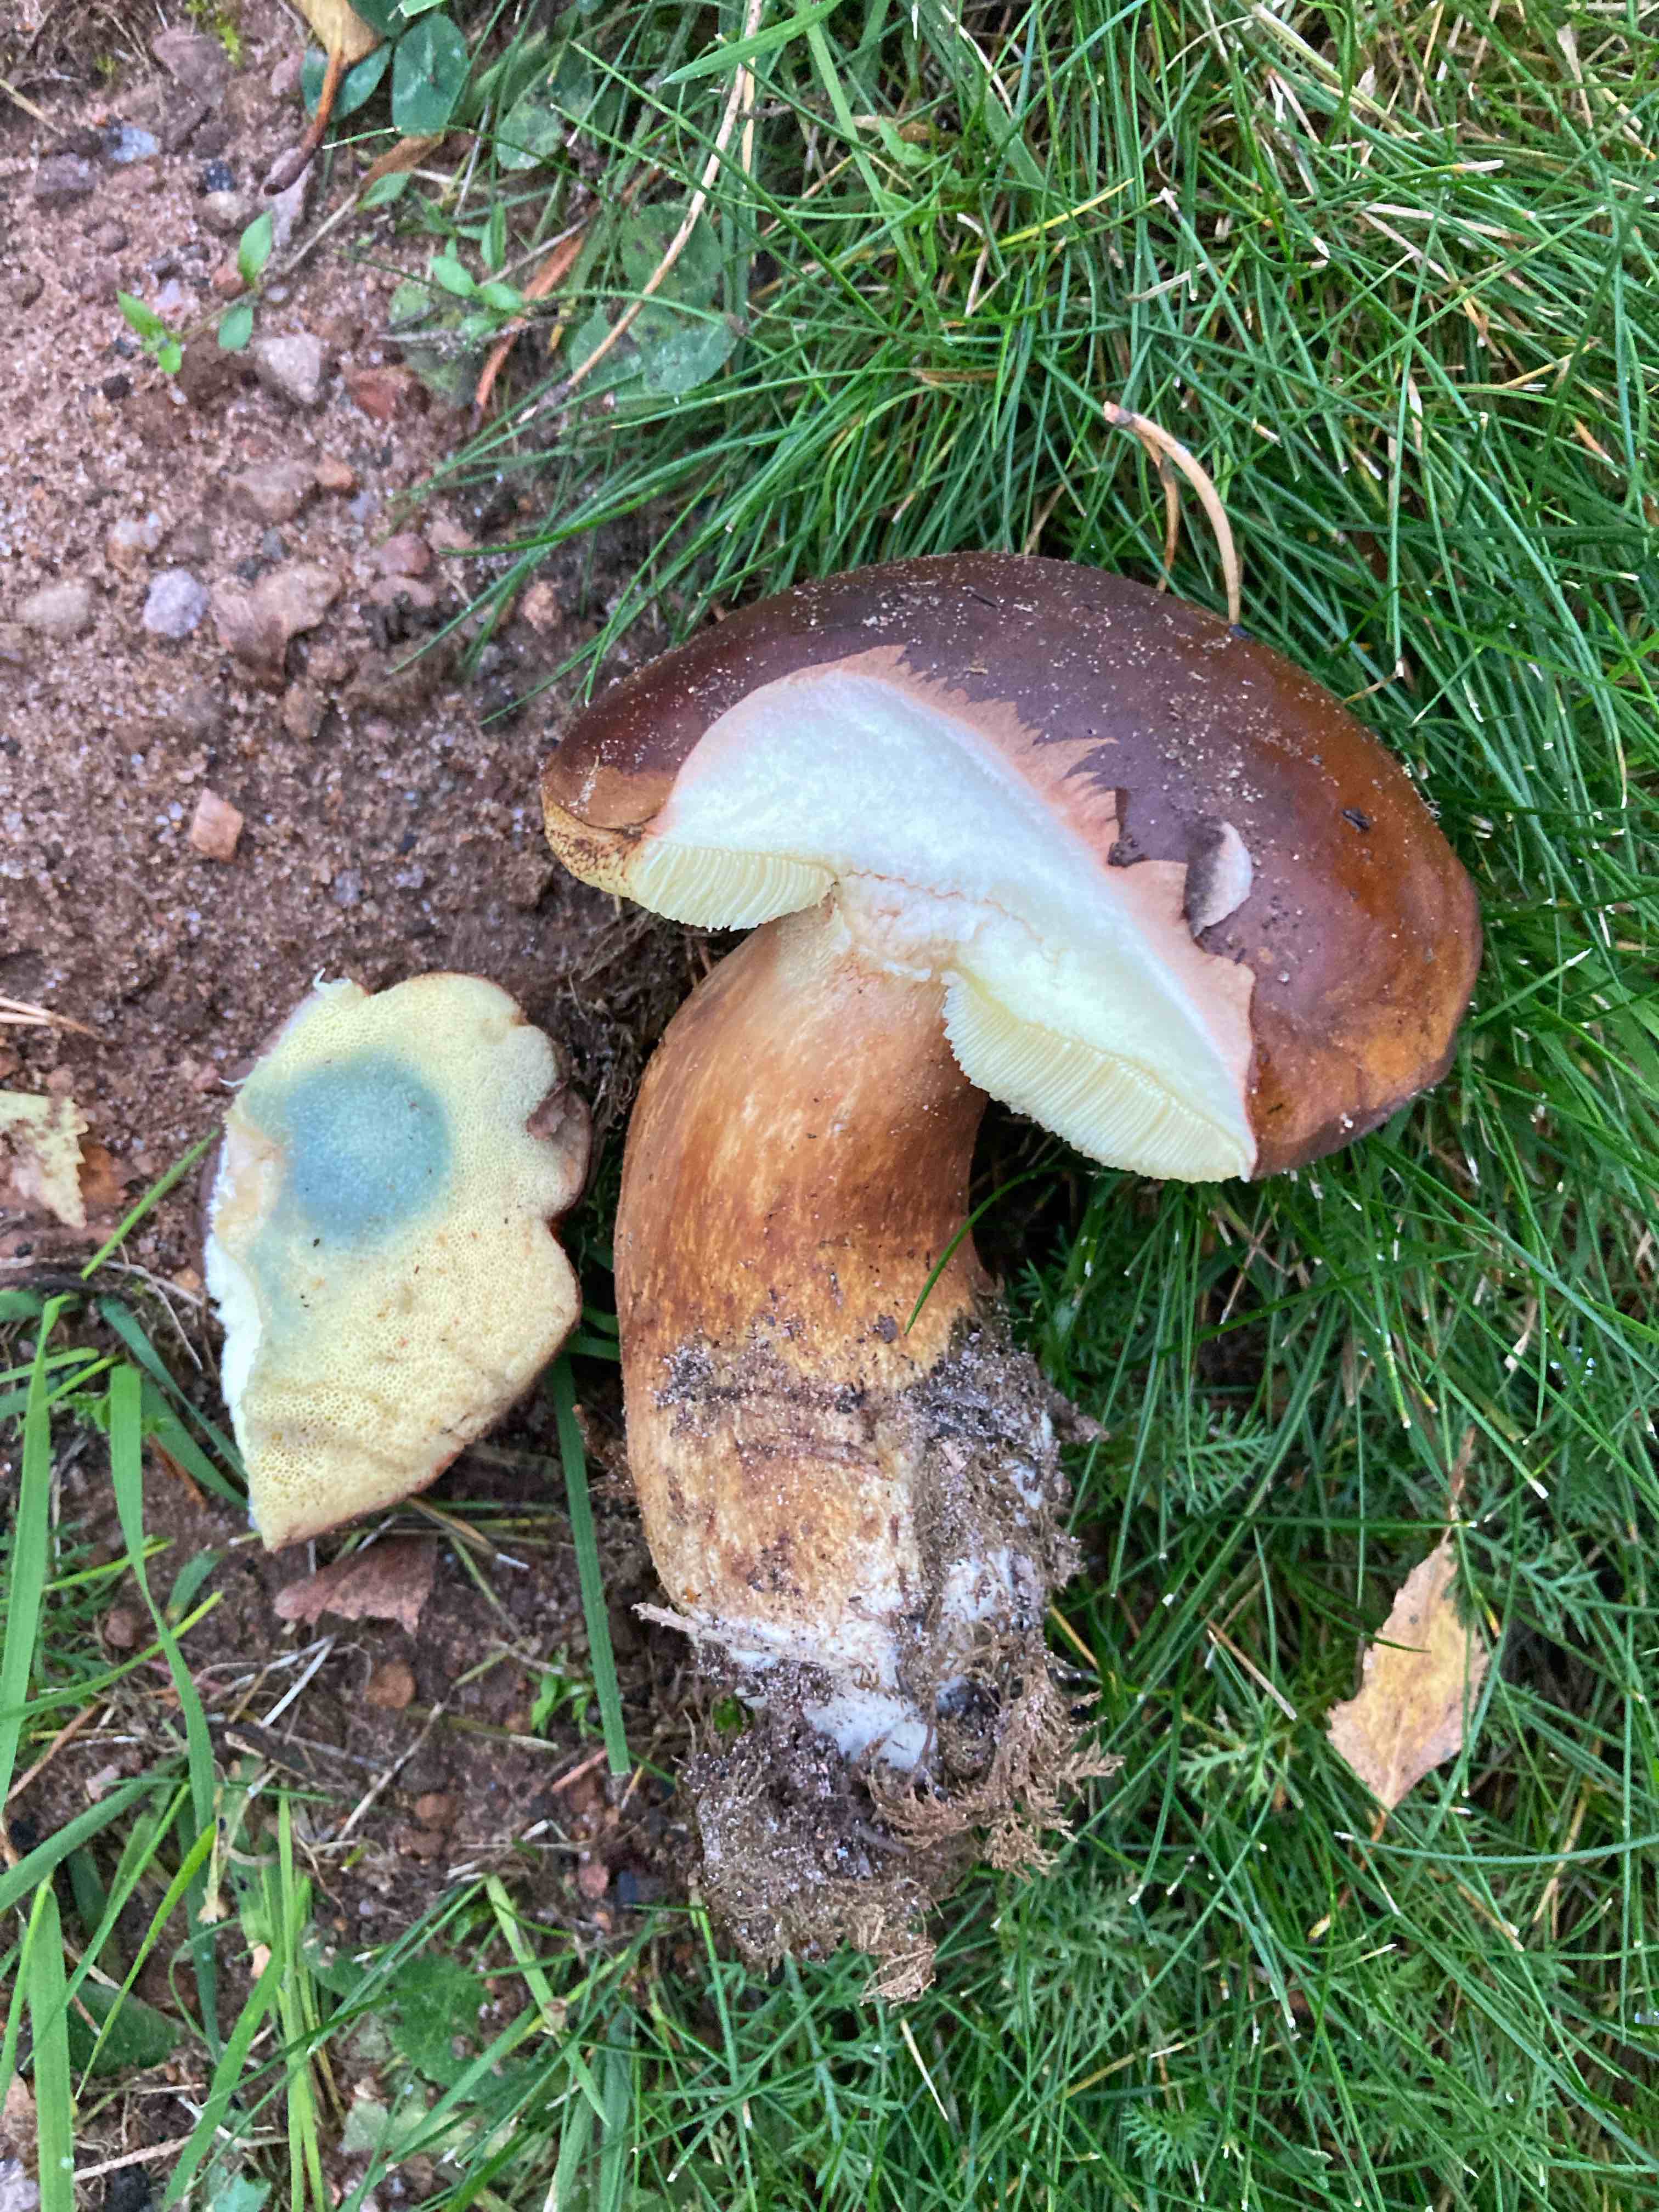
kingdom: Fungi
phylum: Basidiomycota
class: Agaricomycetes
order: Boletales
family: Boletaceae
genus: Imleria
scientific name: Imleria badia
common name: brunstokket rørhat
